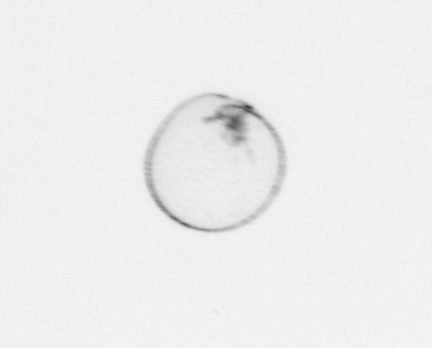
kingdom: Chromista
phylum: Myzozoa
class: Dinophyceae
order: Noctilucales
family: Noctilucaceae
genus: Noctiluca
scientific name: Noctiluca scintillans
